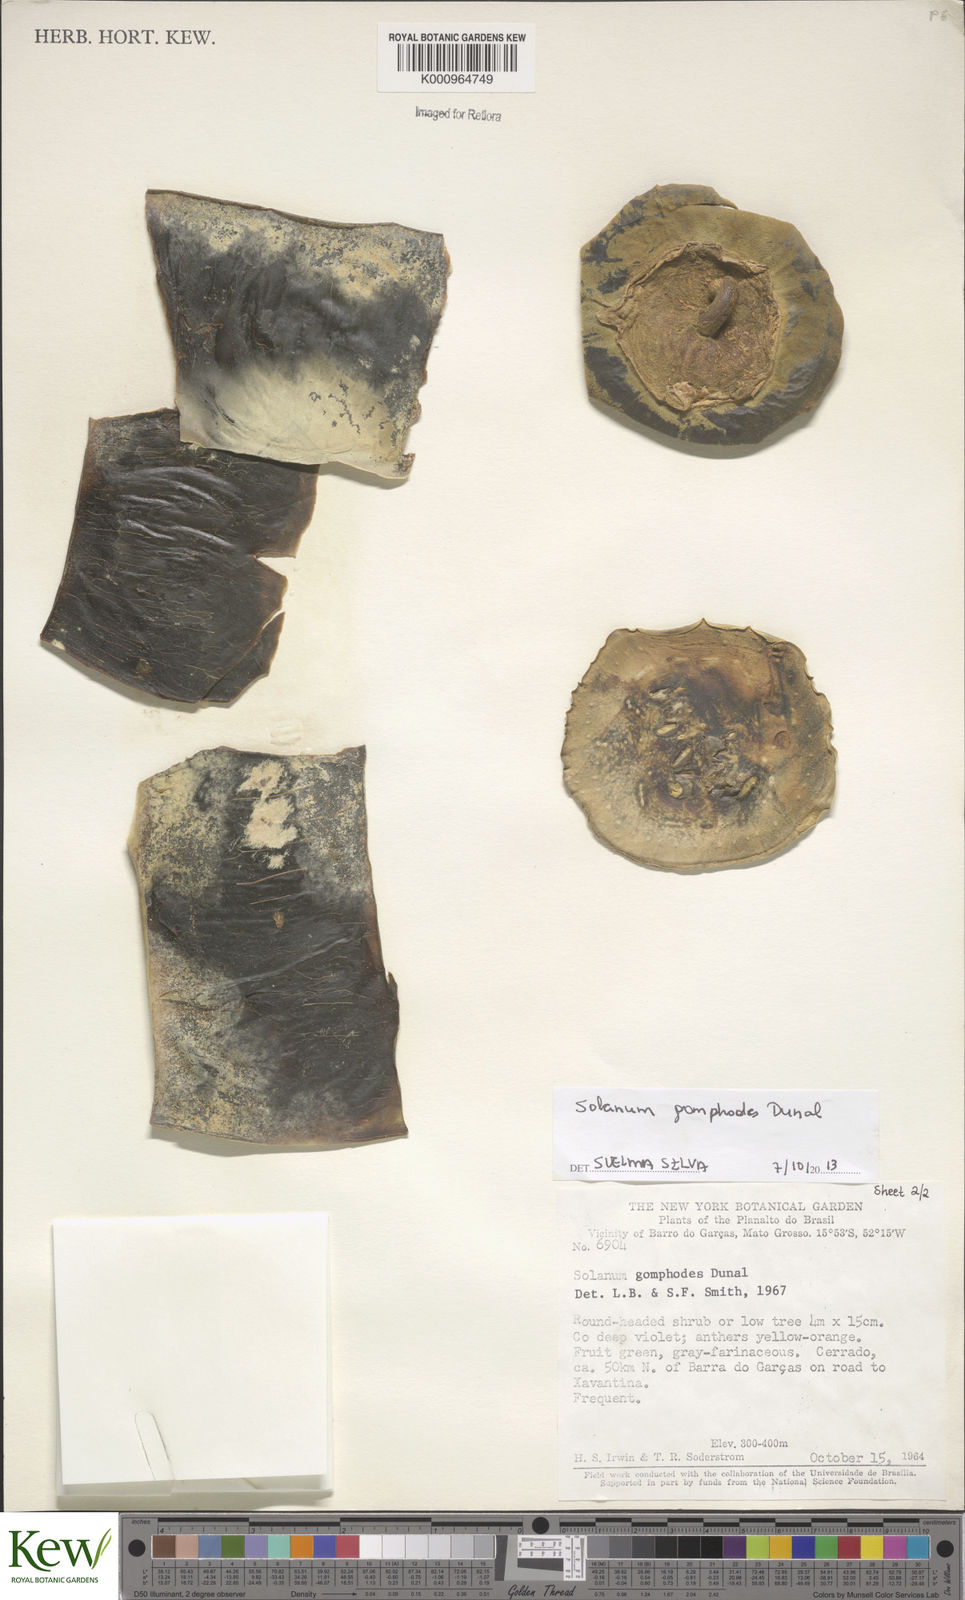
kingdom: Plantae
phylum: Tracheophyta
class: Magnoliopsida
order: Solanales
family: Solanaceae
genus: Solanum
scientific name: Solanum gomphodes
